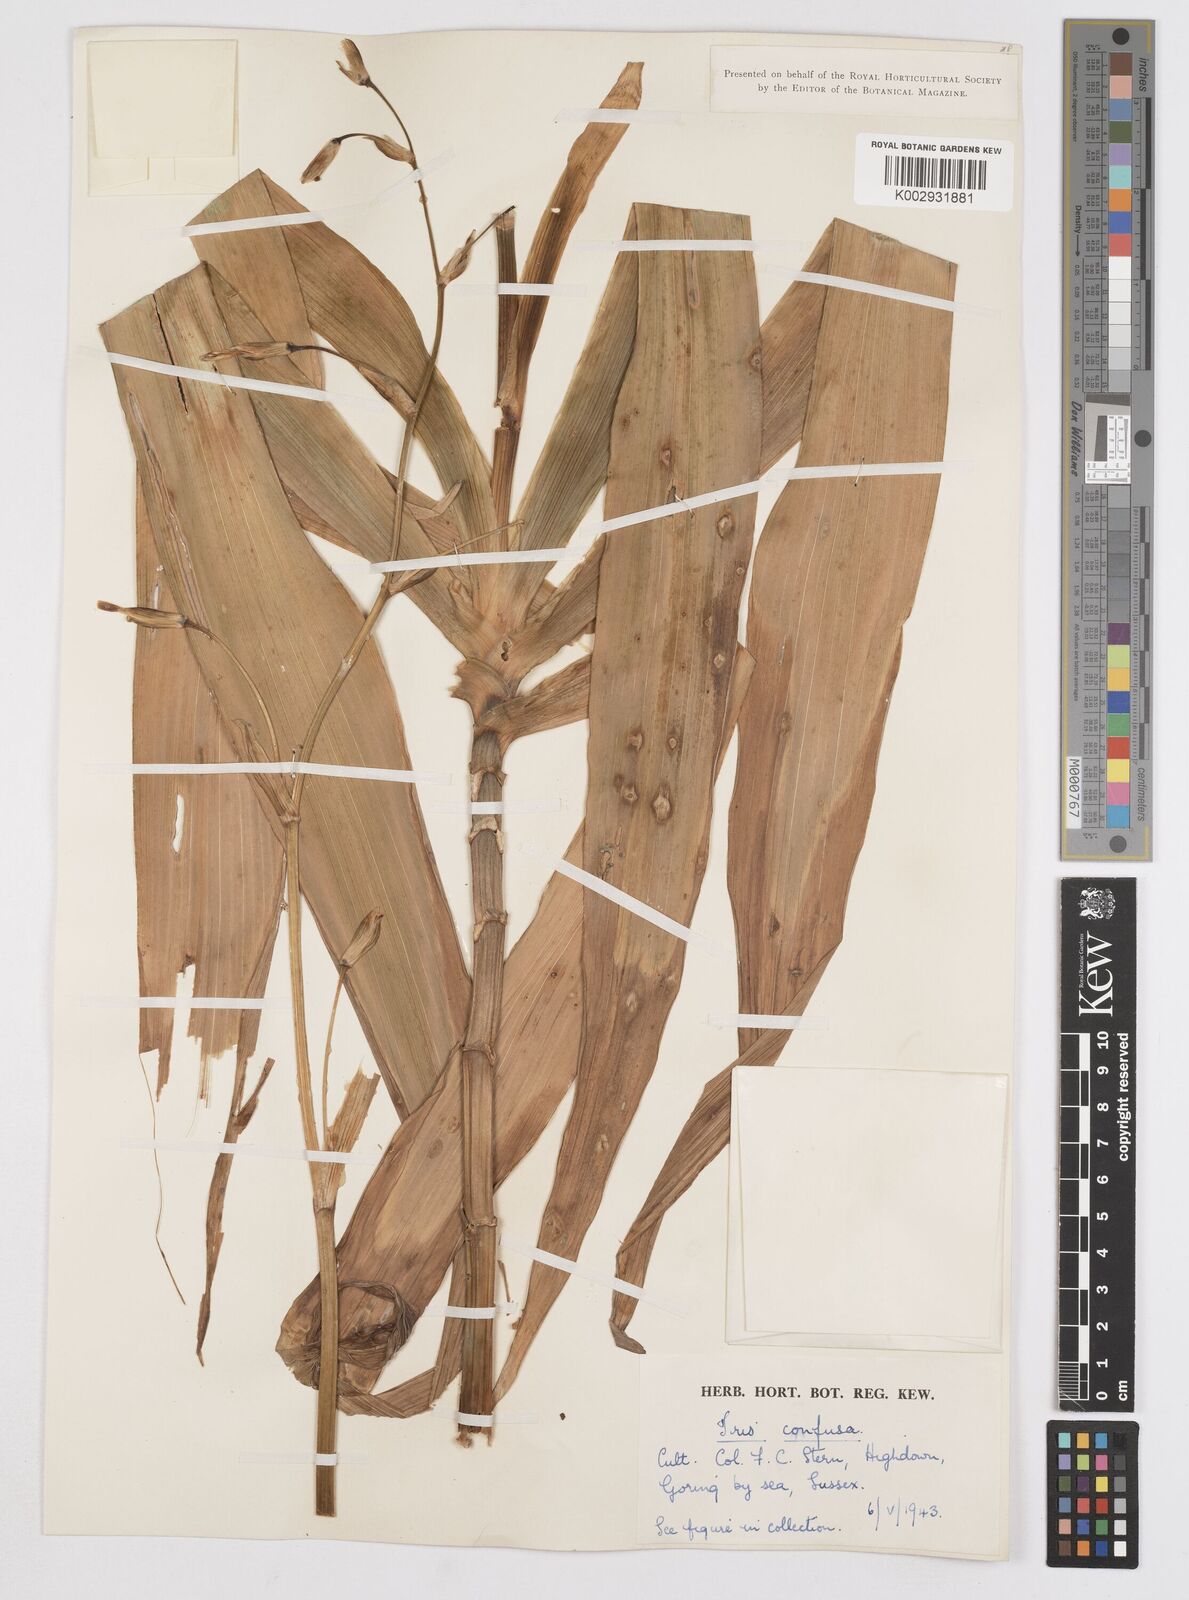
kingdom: Plantae
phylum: Tracheophyta
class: Liliopsida
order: Asparagales
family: Iridaceae
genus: Iris
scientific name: Iris confusa
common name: Flat bamboo-orchid
